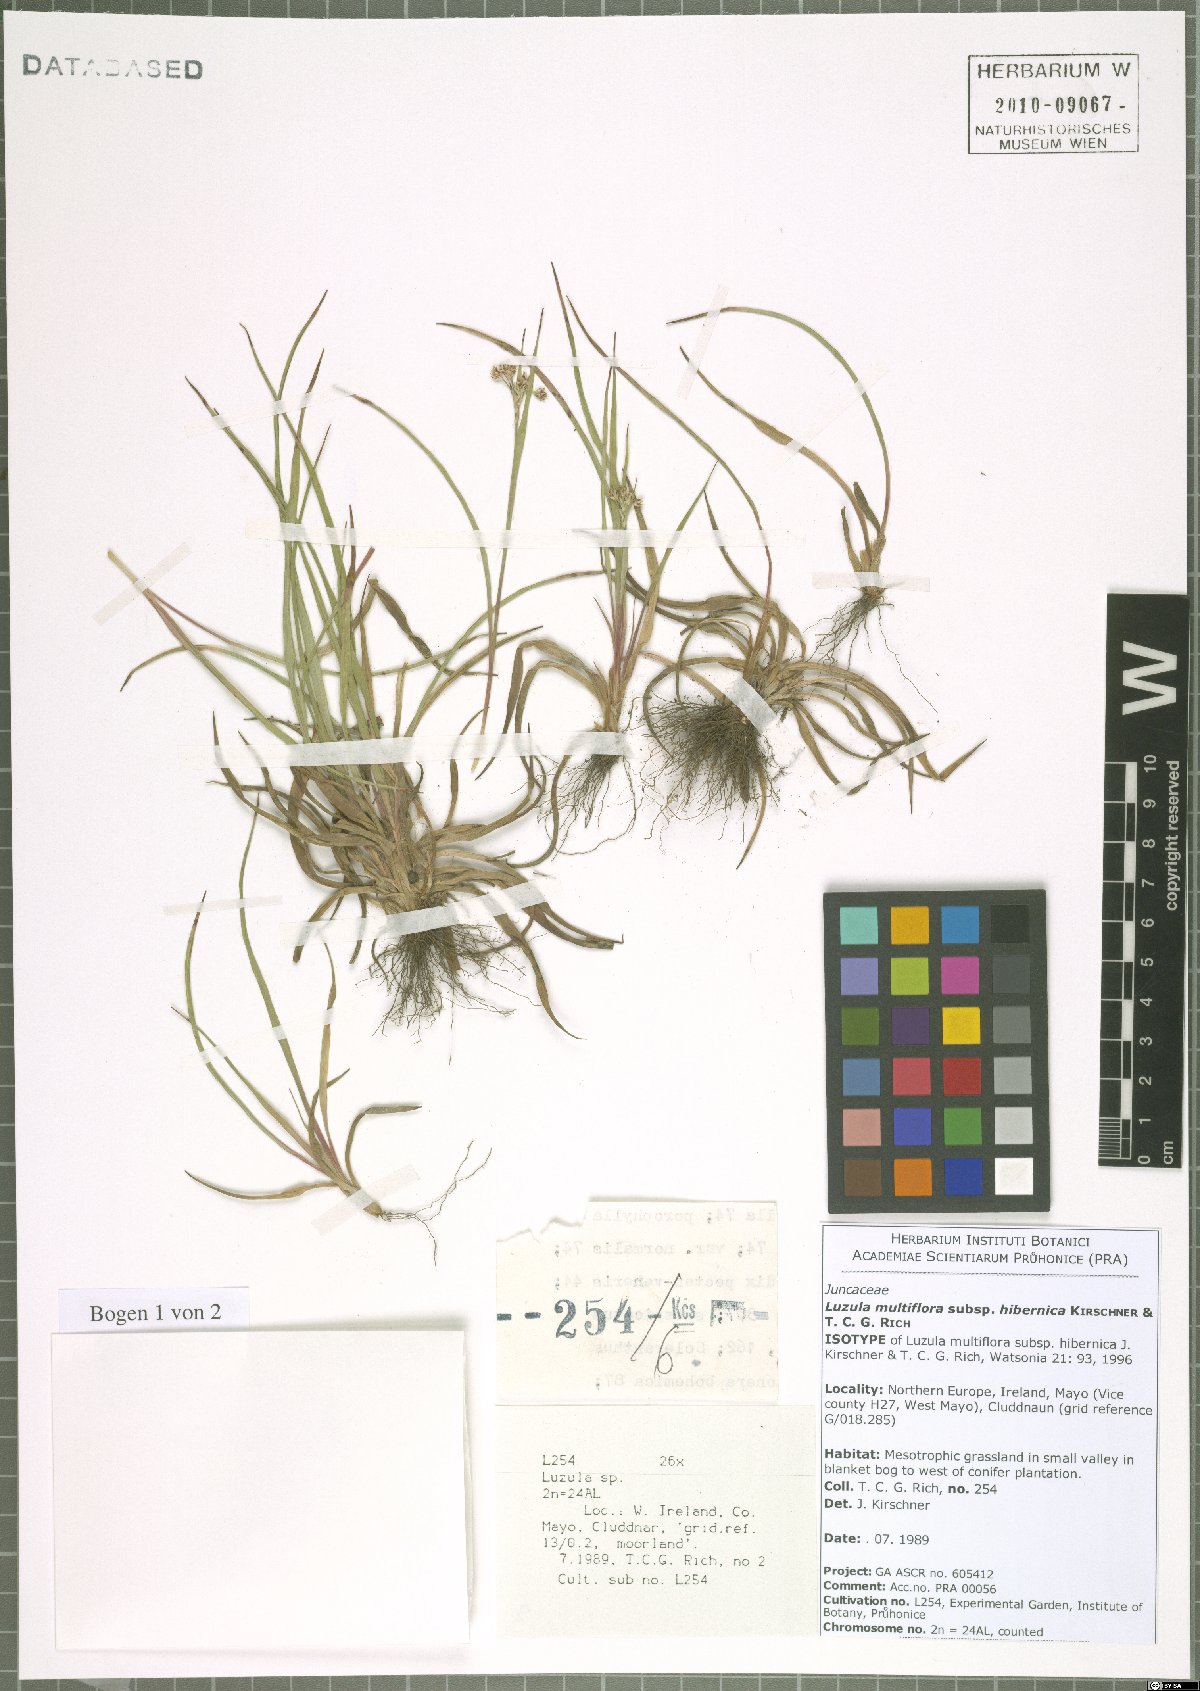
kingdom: Plantae
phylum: Tracheophyta
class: Liliopsida
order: Poales
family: Juncaceae
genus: Luzula
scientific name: Luzula multiflora
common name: Heath wood-rush
